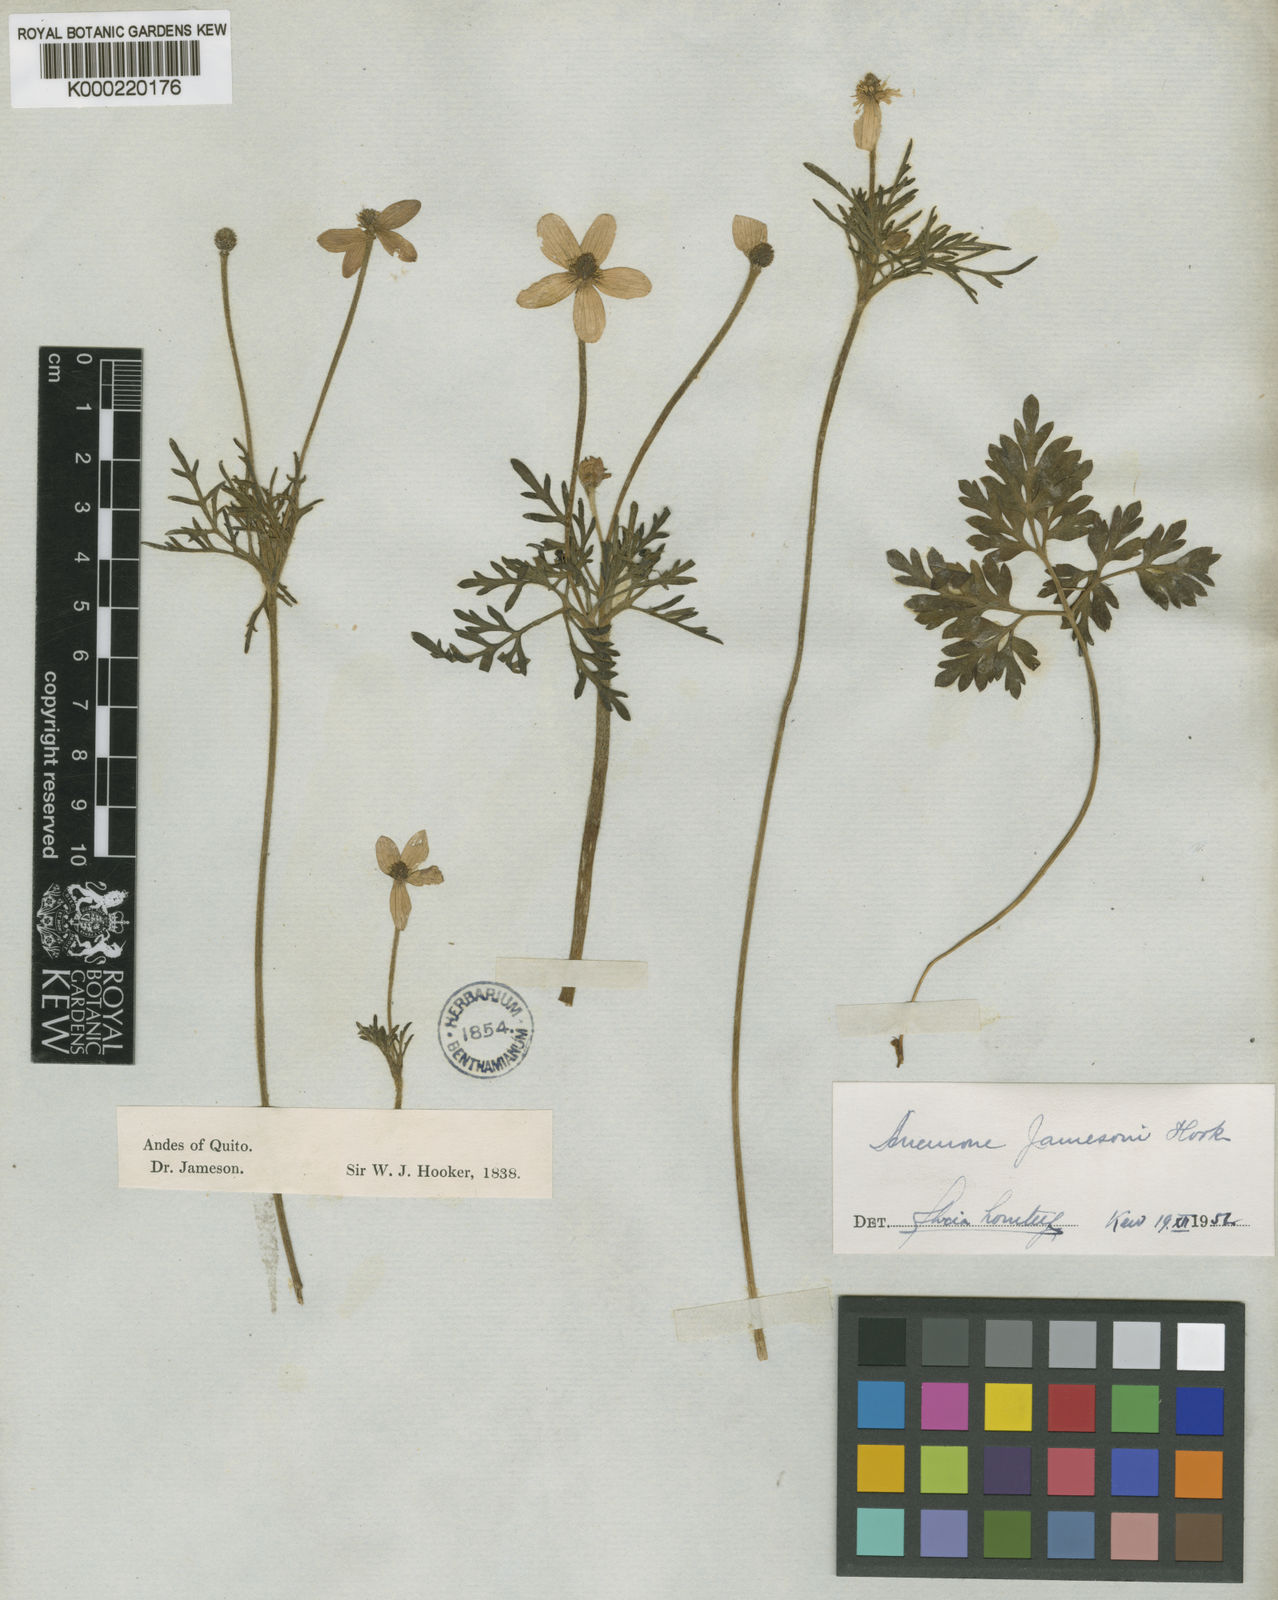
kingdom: Plantae
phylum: Tracheophyta
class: Magnoliopsida
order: Ranunculales
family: Ranunculaceae
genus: Anemone
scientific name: Anemone decapetala
